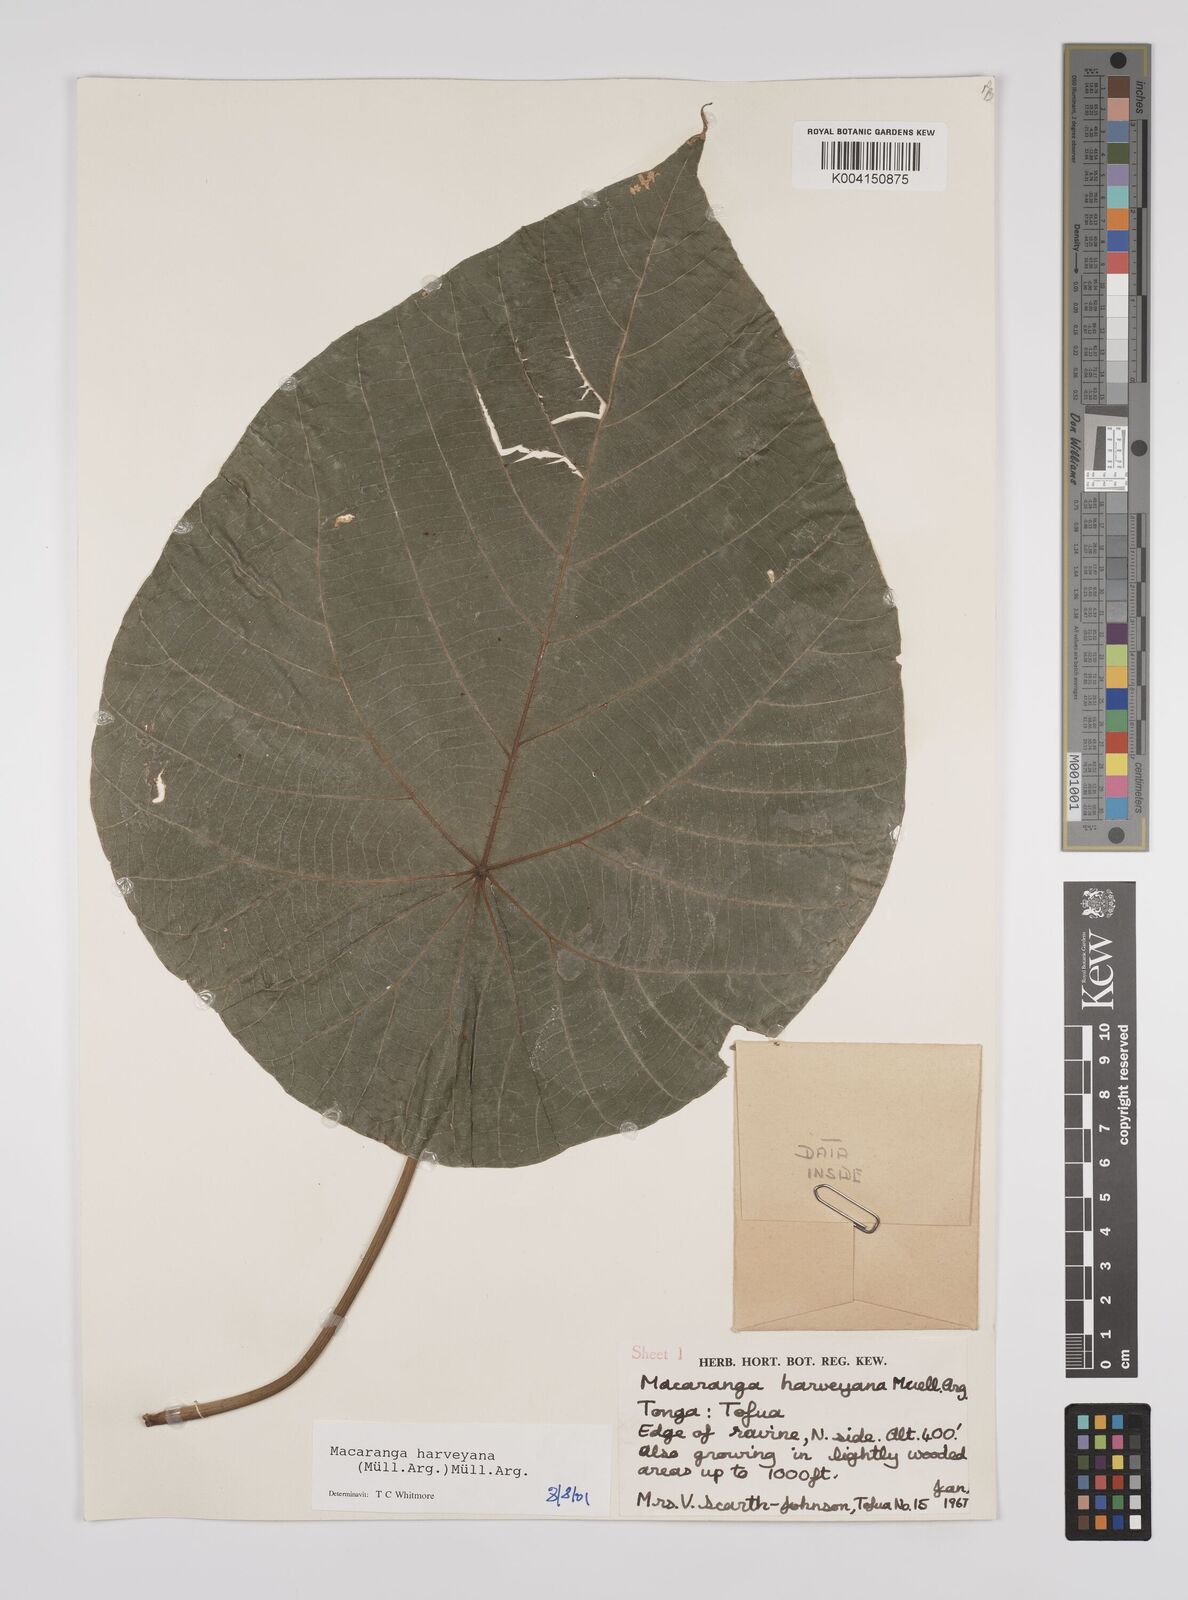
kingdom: Plantae
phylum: Tracheophyta
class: Magnoliopsida
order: Malpighiales
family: Euphorbiaceae
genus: Macaranga
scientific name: Macaranga harveyana
